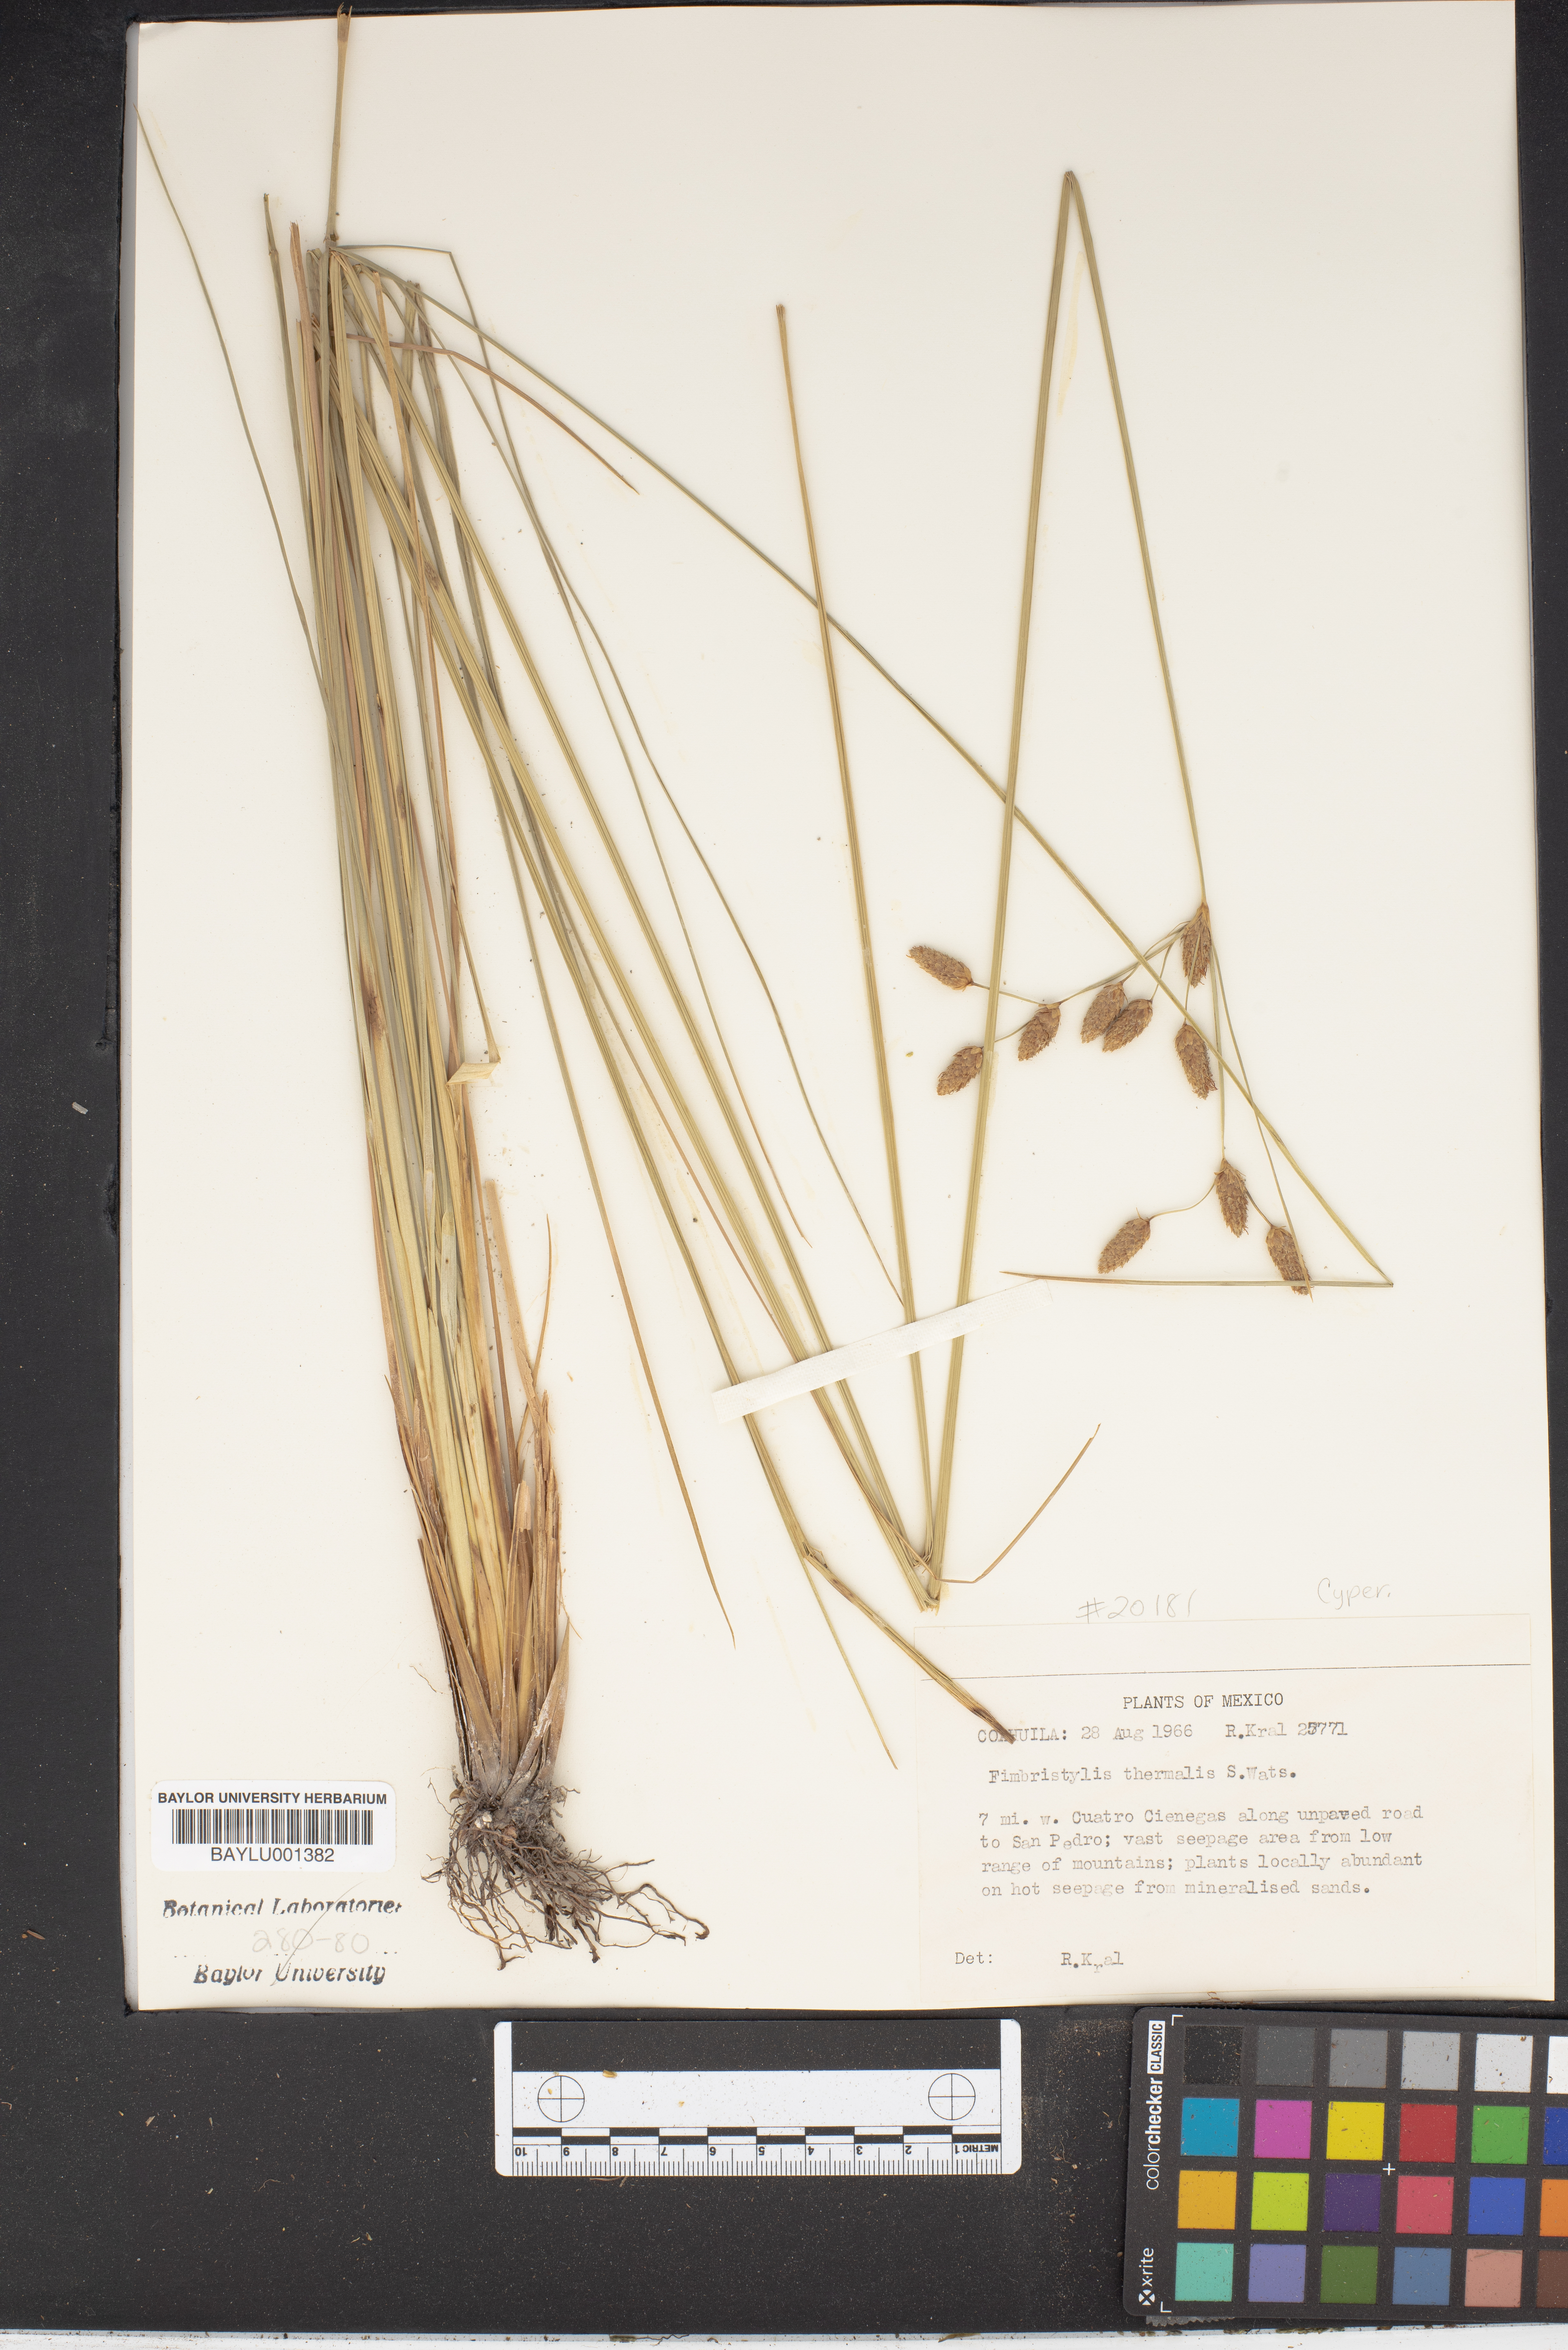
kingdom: Plantae
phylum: Tracheophyta
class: Liliopsida
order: Poales
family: Cyperaceae
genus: Fimbristylis
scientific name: Fimbristylis thermalis
